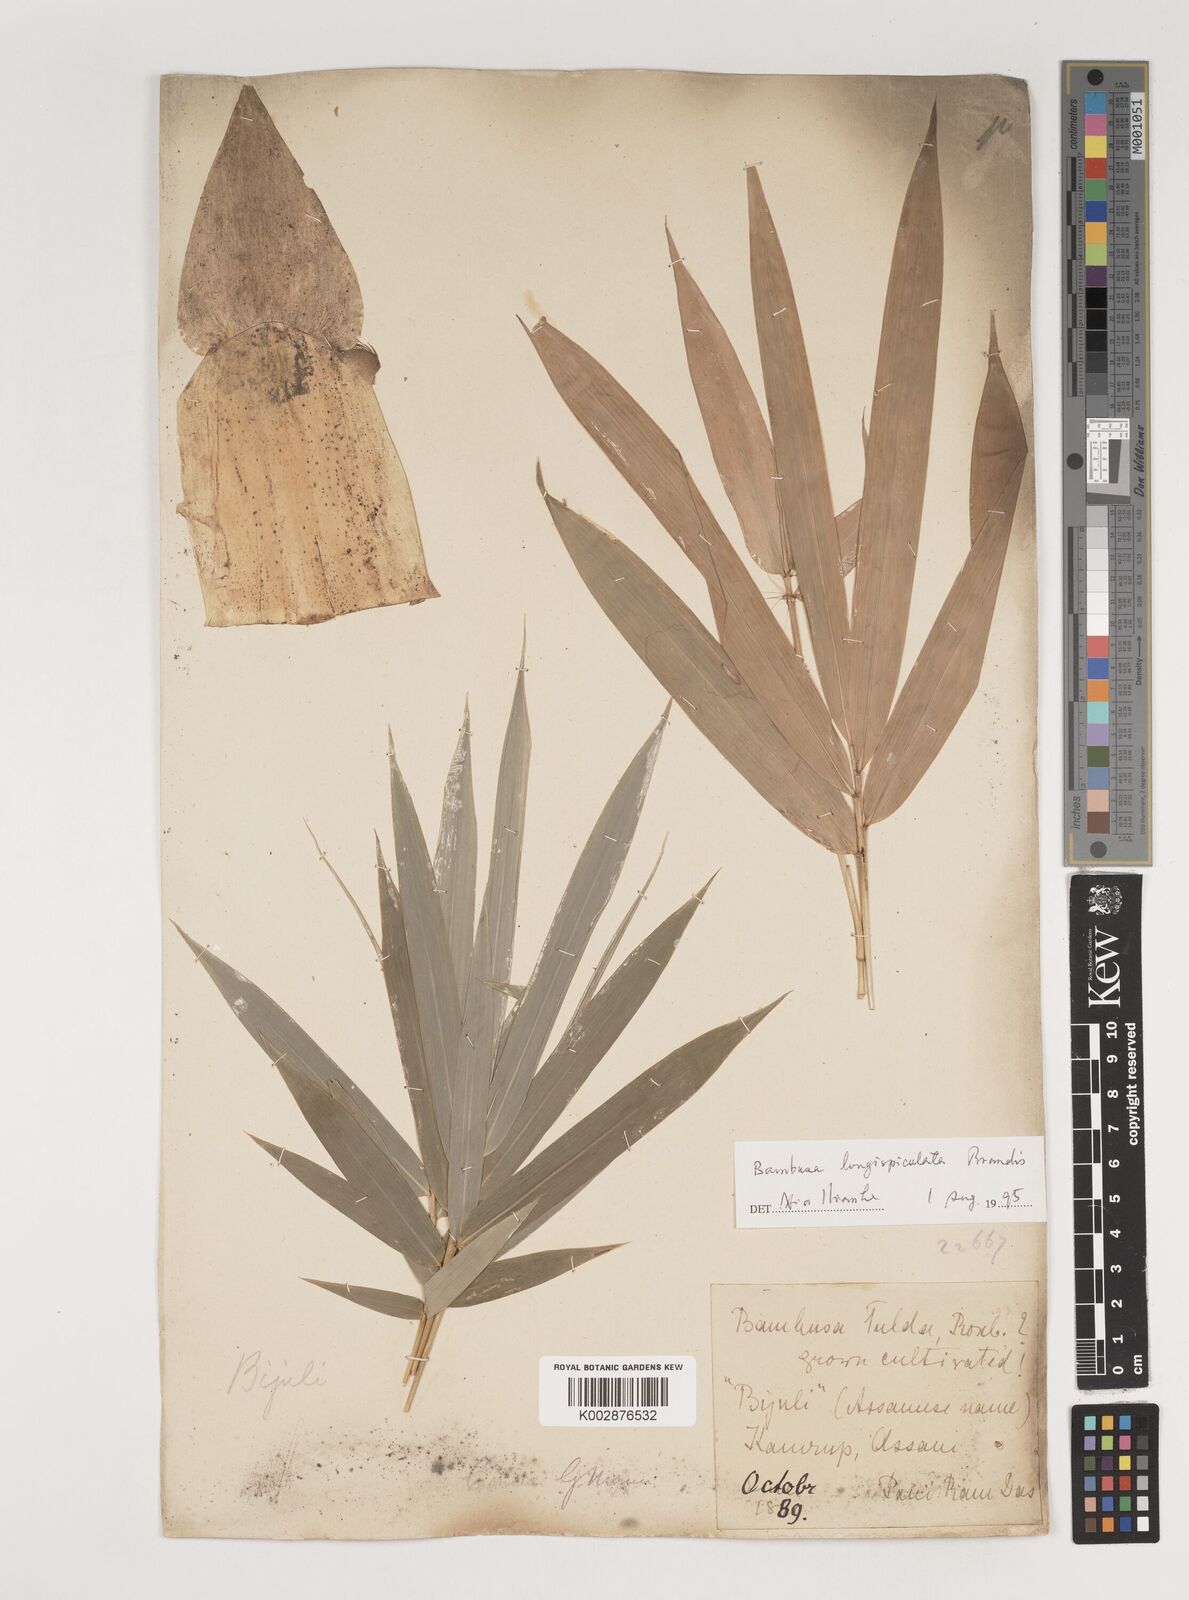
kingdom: Plantae
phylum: Tracheophyta
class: Liliopsida
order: Poales
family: Poaceae
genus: Bambusa
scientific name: Bambusa longispiculata
